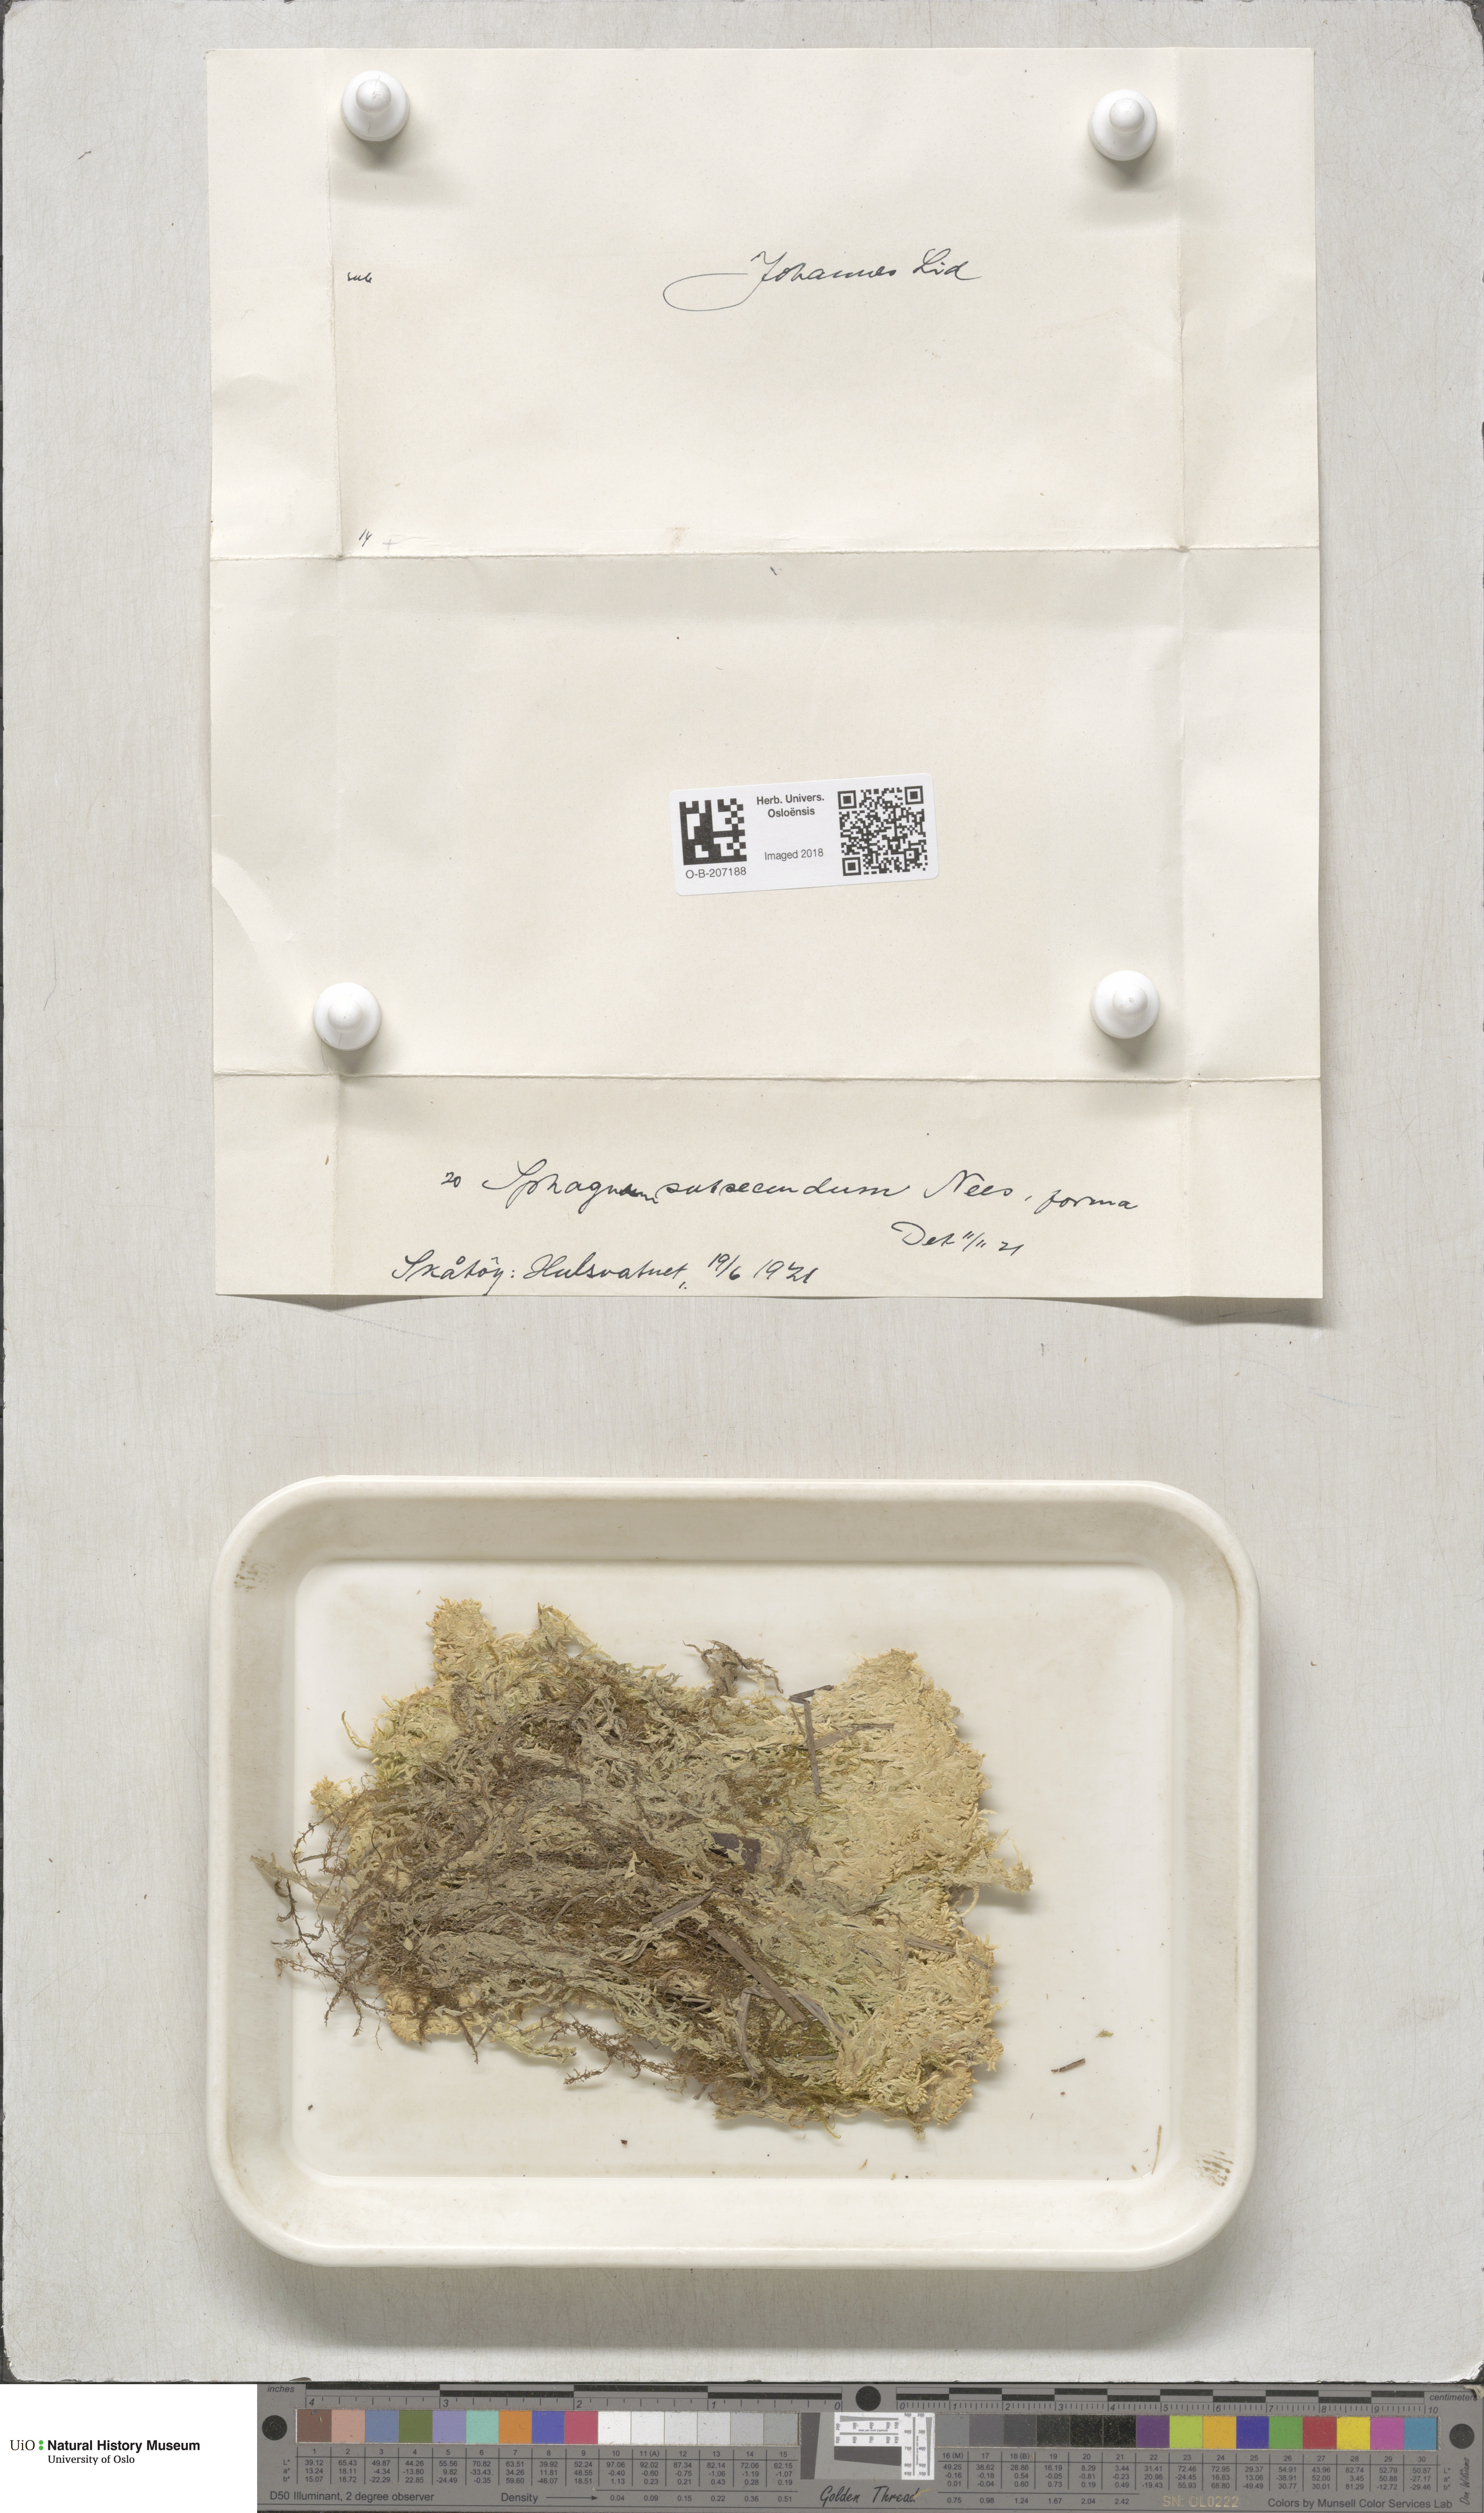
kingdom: Plantae
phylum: Bryophyta
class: Sphagnopsida
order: Sphagnales
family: Sphagnaceae
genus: Sphagnum
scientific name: Sphagnum subsecundum
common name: Orange peat moss
